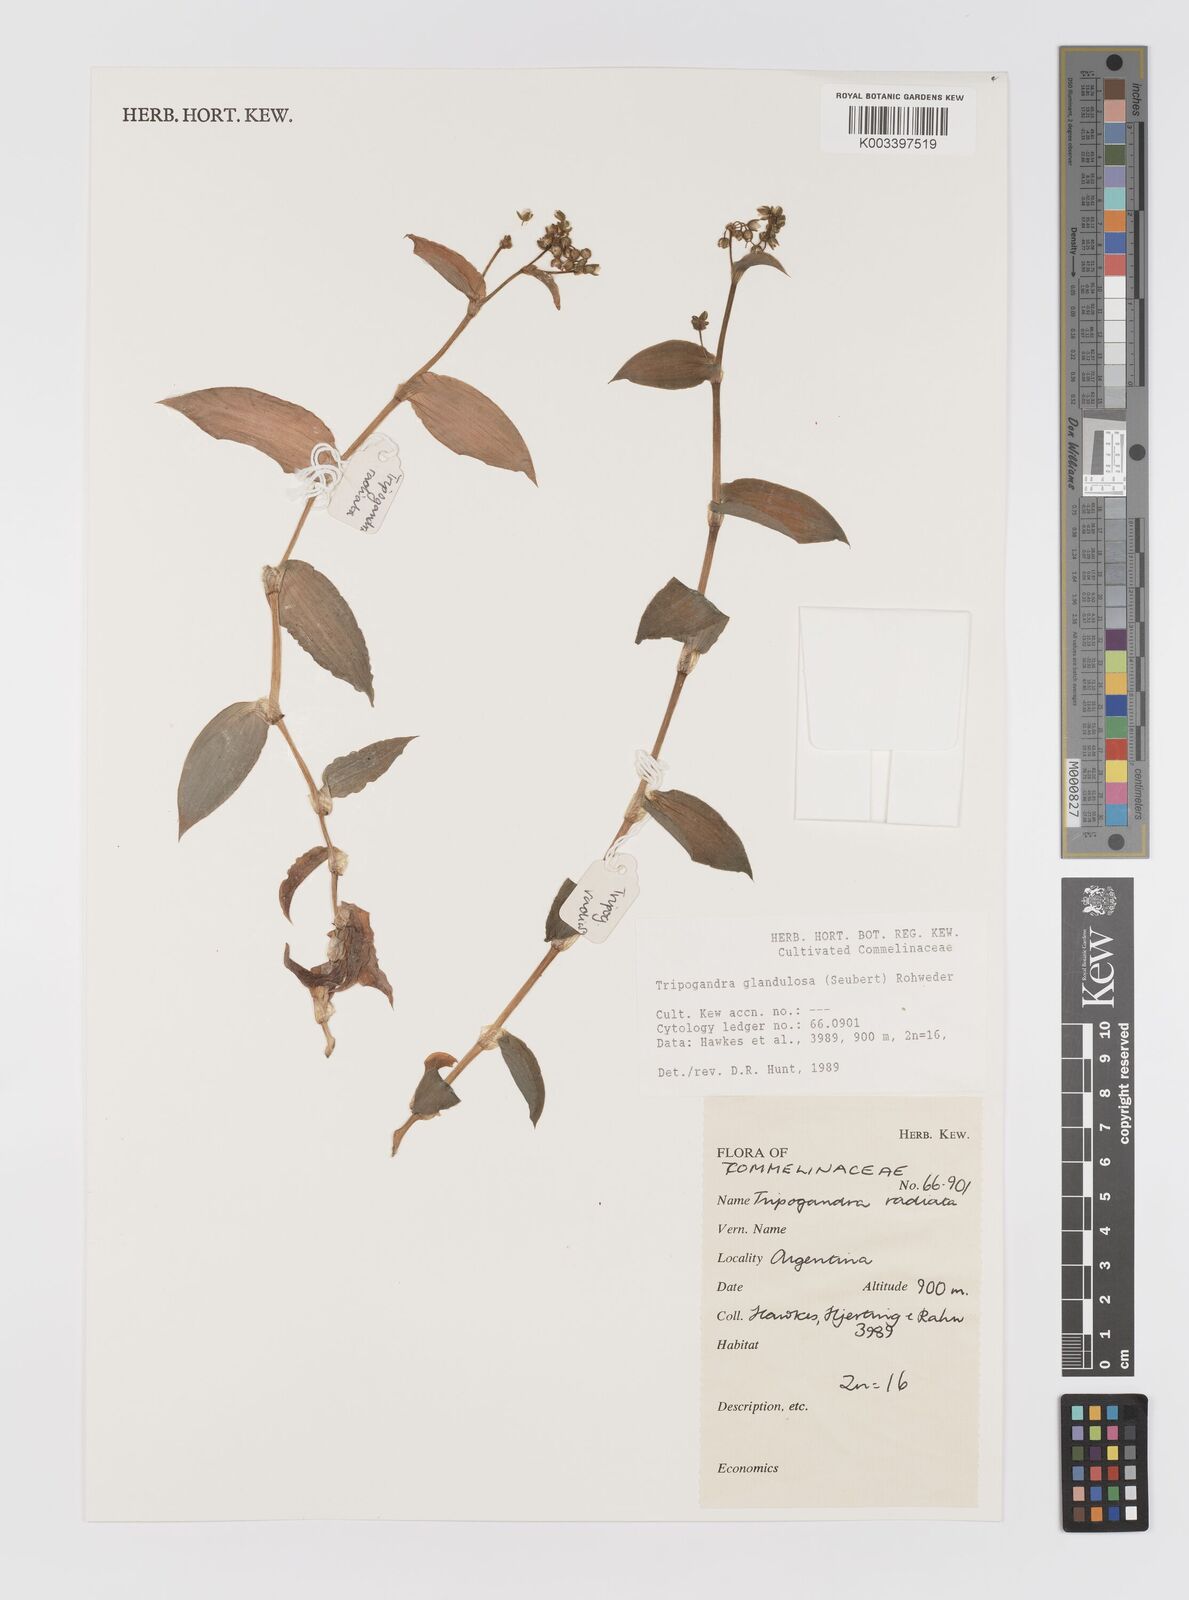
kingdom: Plantae
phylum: Tracheophyta
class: Liliopsida
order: Commelinales
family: Commelinaceae
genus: Callisia
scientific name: Callisia glandulosa
